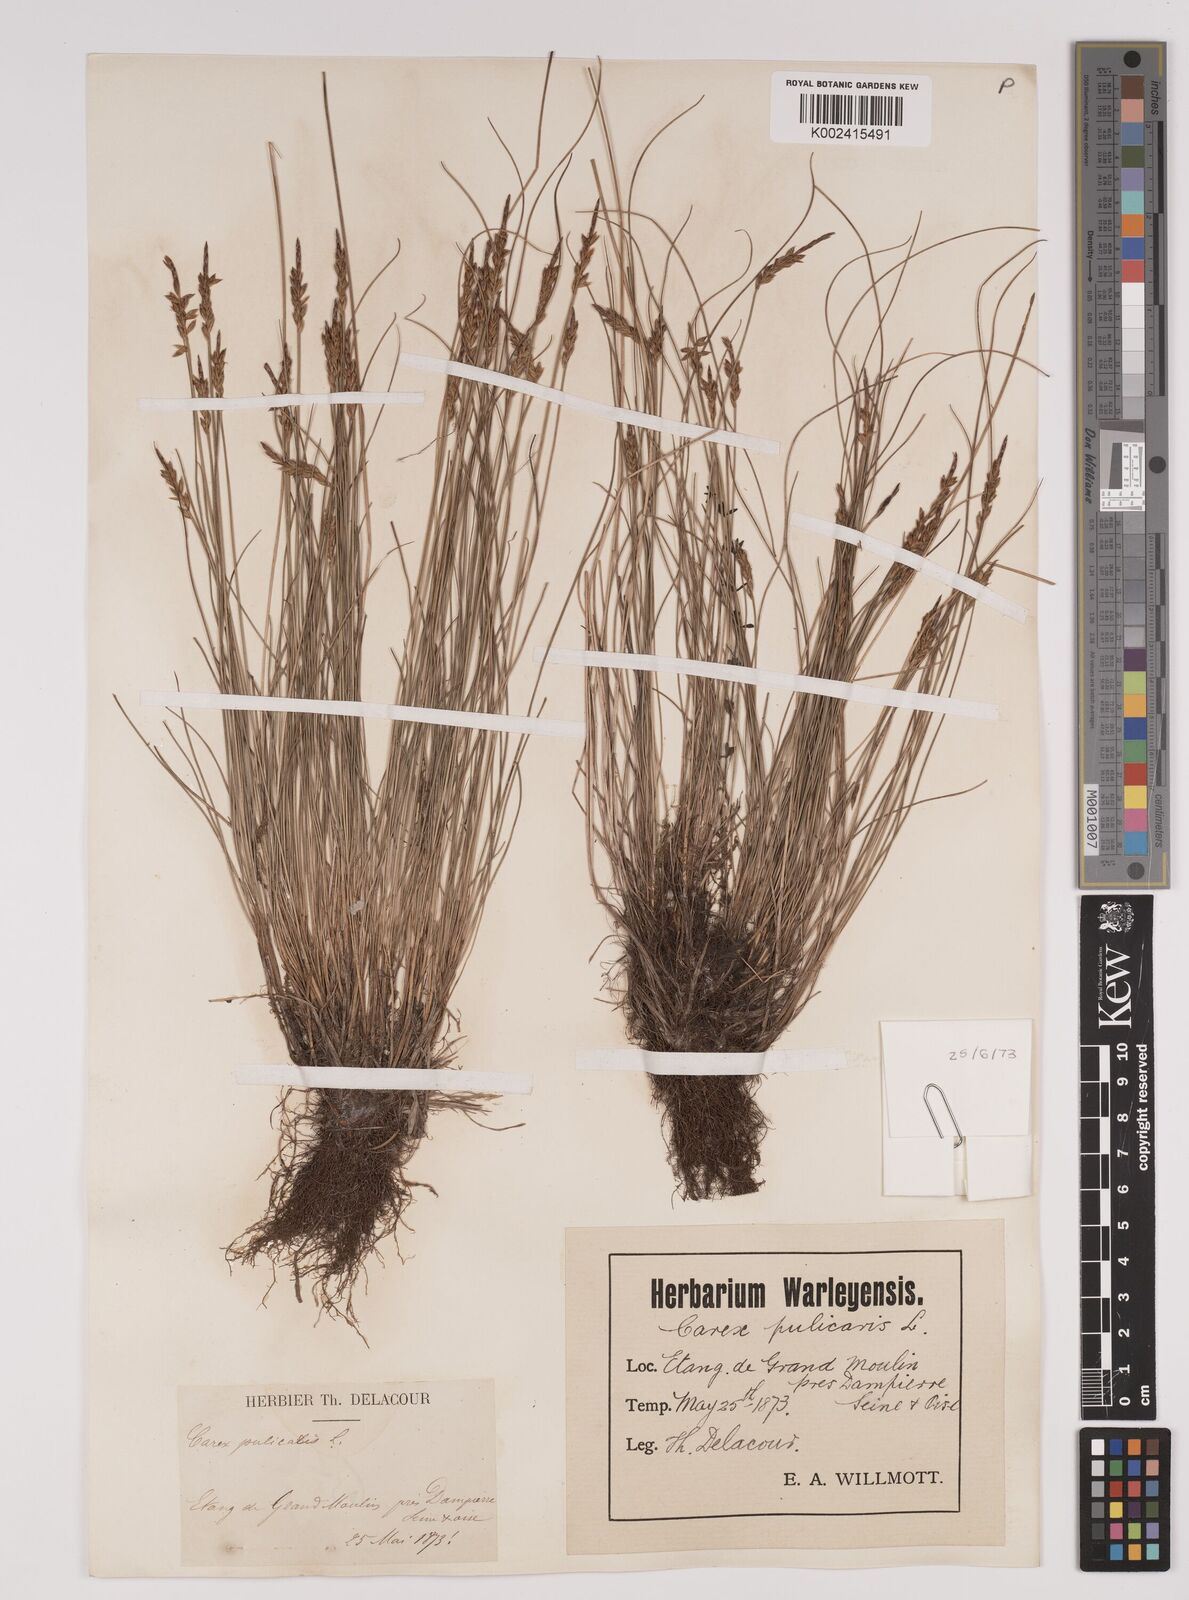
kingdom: Plantae
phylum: Tracheophyta
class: Liliopsida
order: Poales
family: Cyperaceae
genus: Carex
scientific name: Carex pulicaris
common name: Flea sedge
